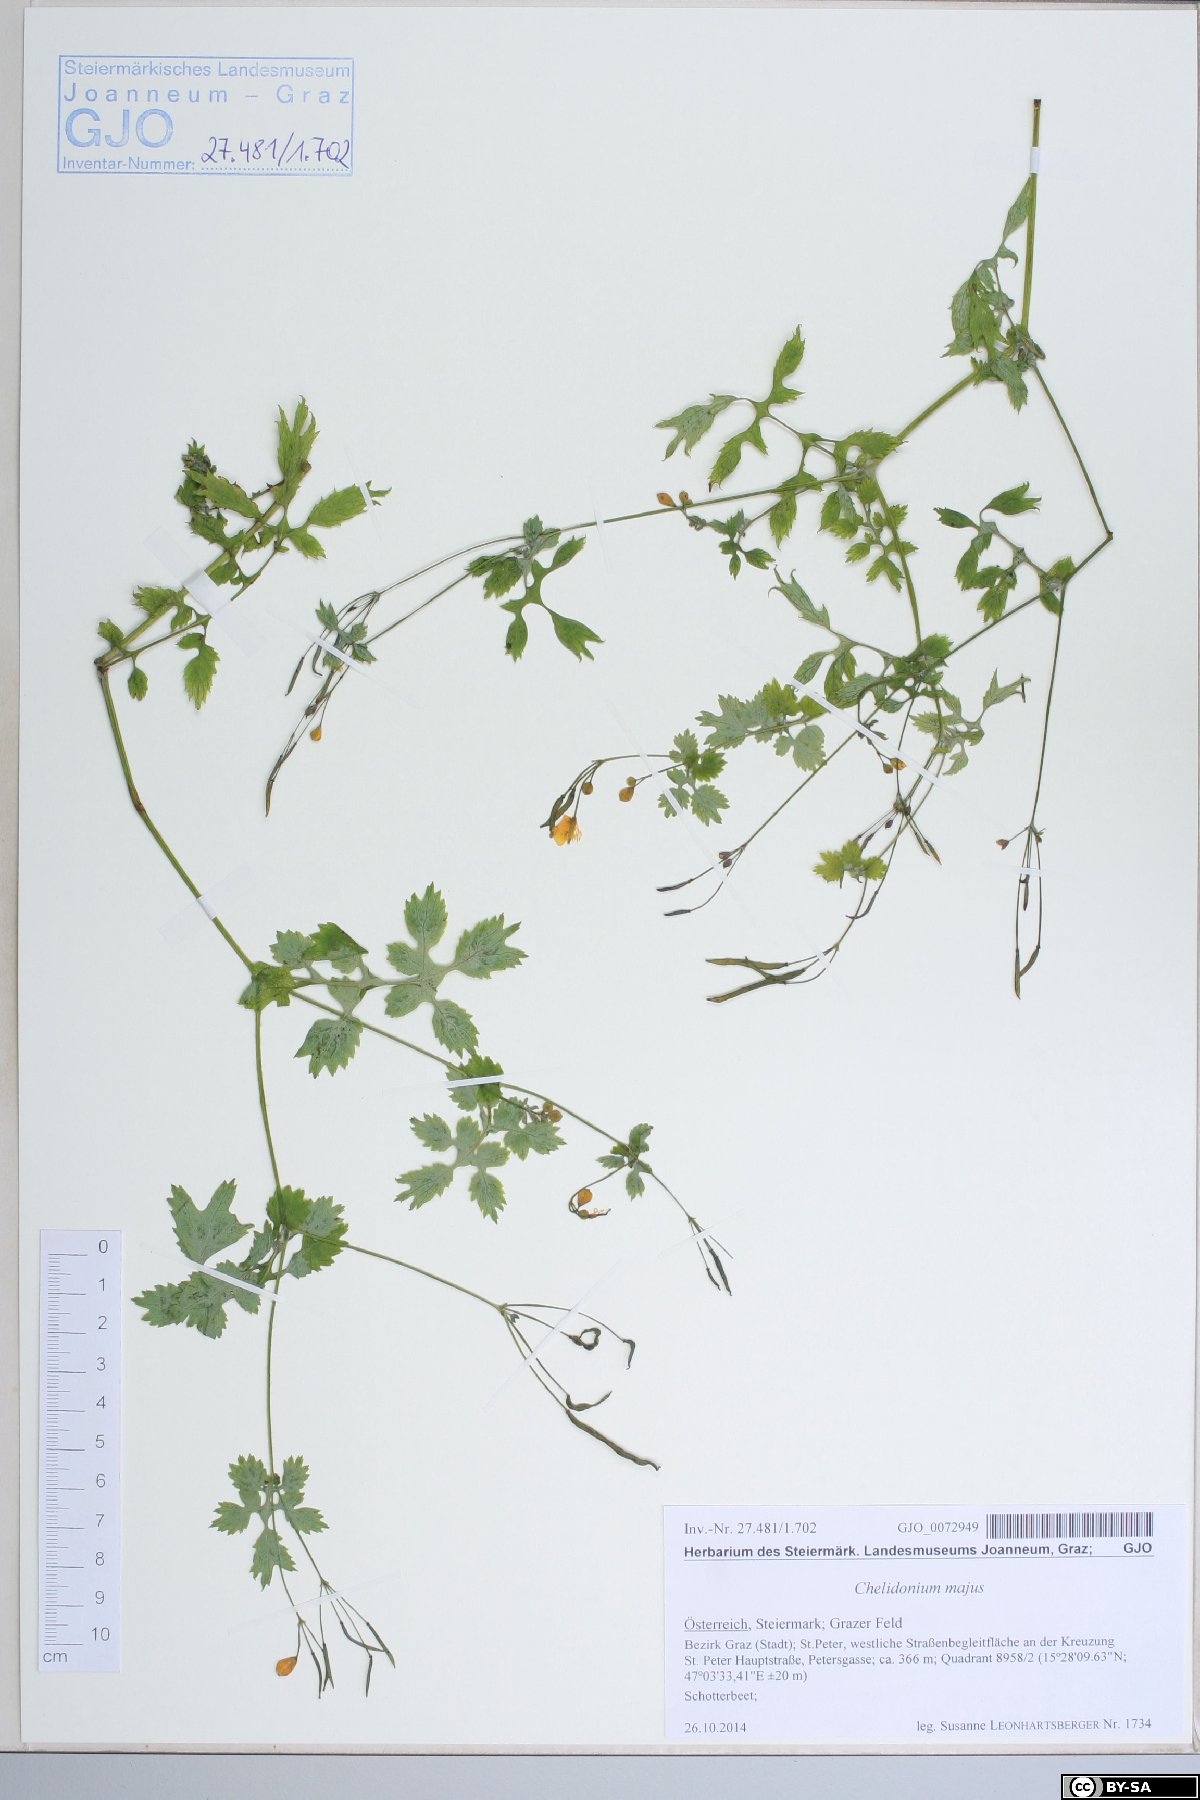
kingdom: Plantae
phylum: Tracheophyta
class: Magnoliopsida
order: Ranunculales
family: Papaveraceae
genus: Chelidonium
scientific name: Chelidonium majus
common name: Greater celandine
